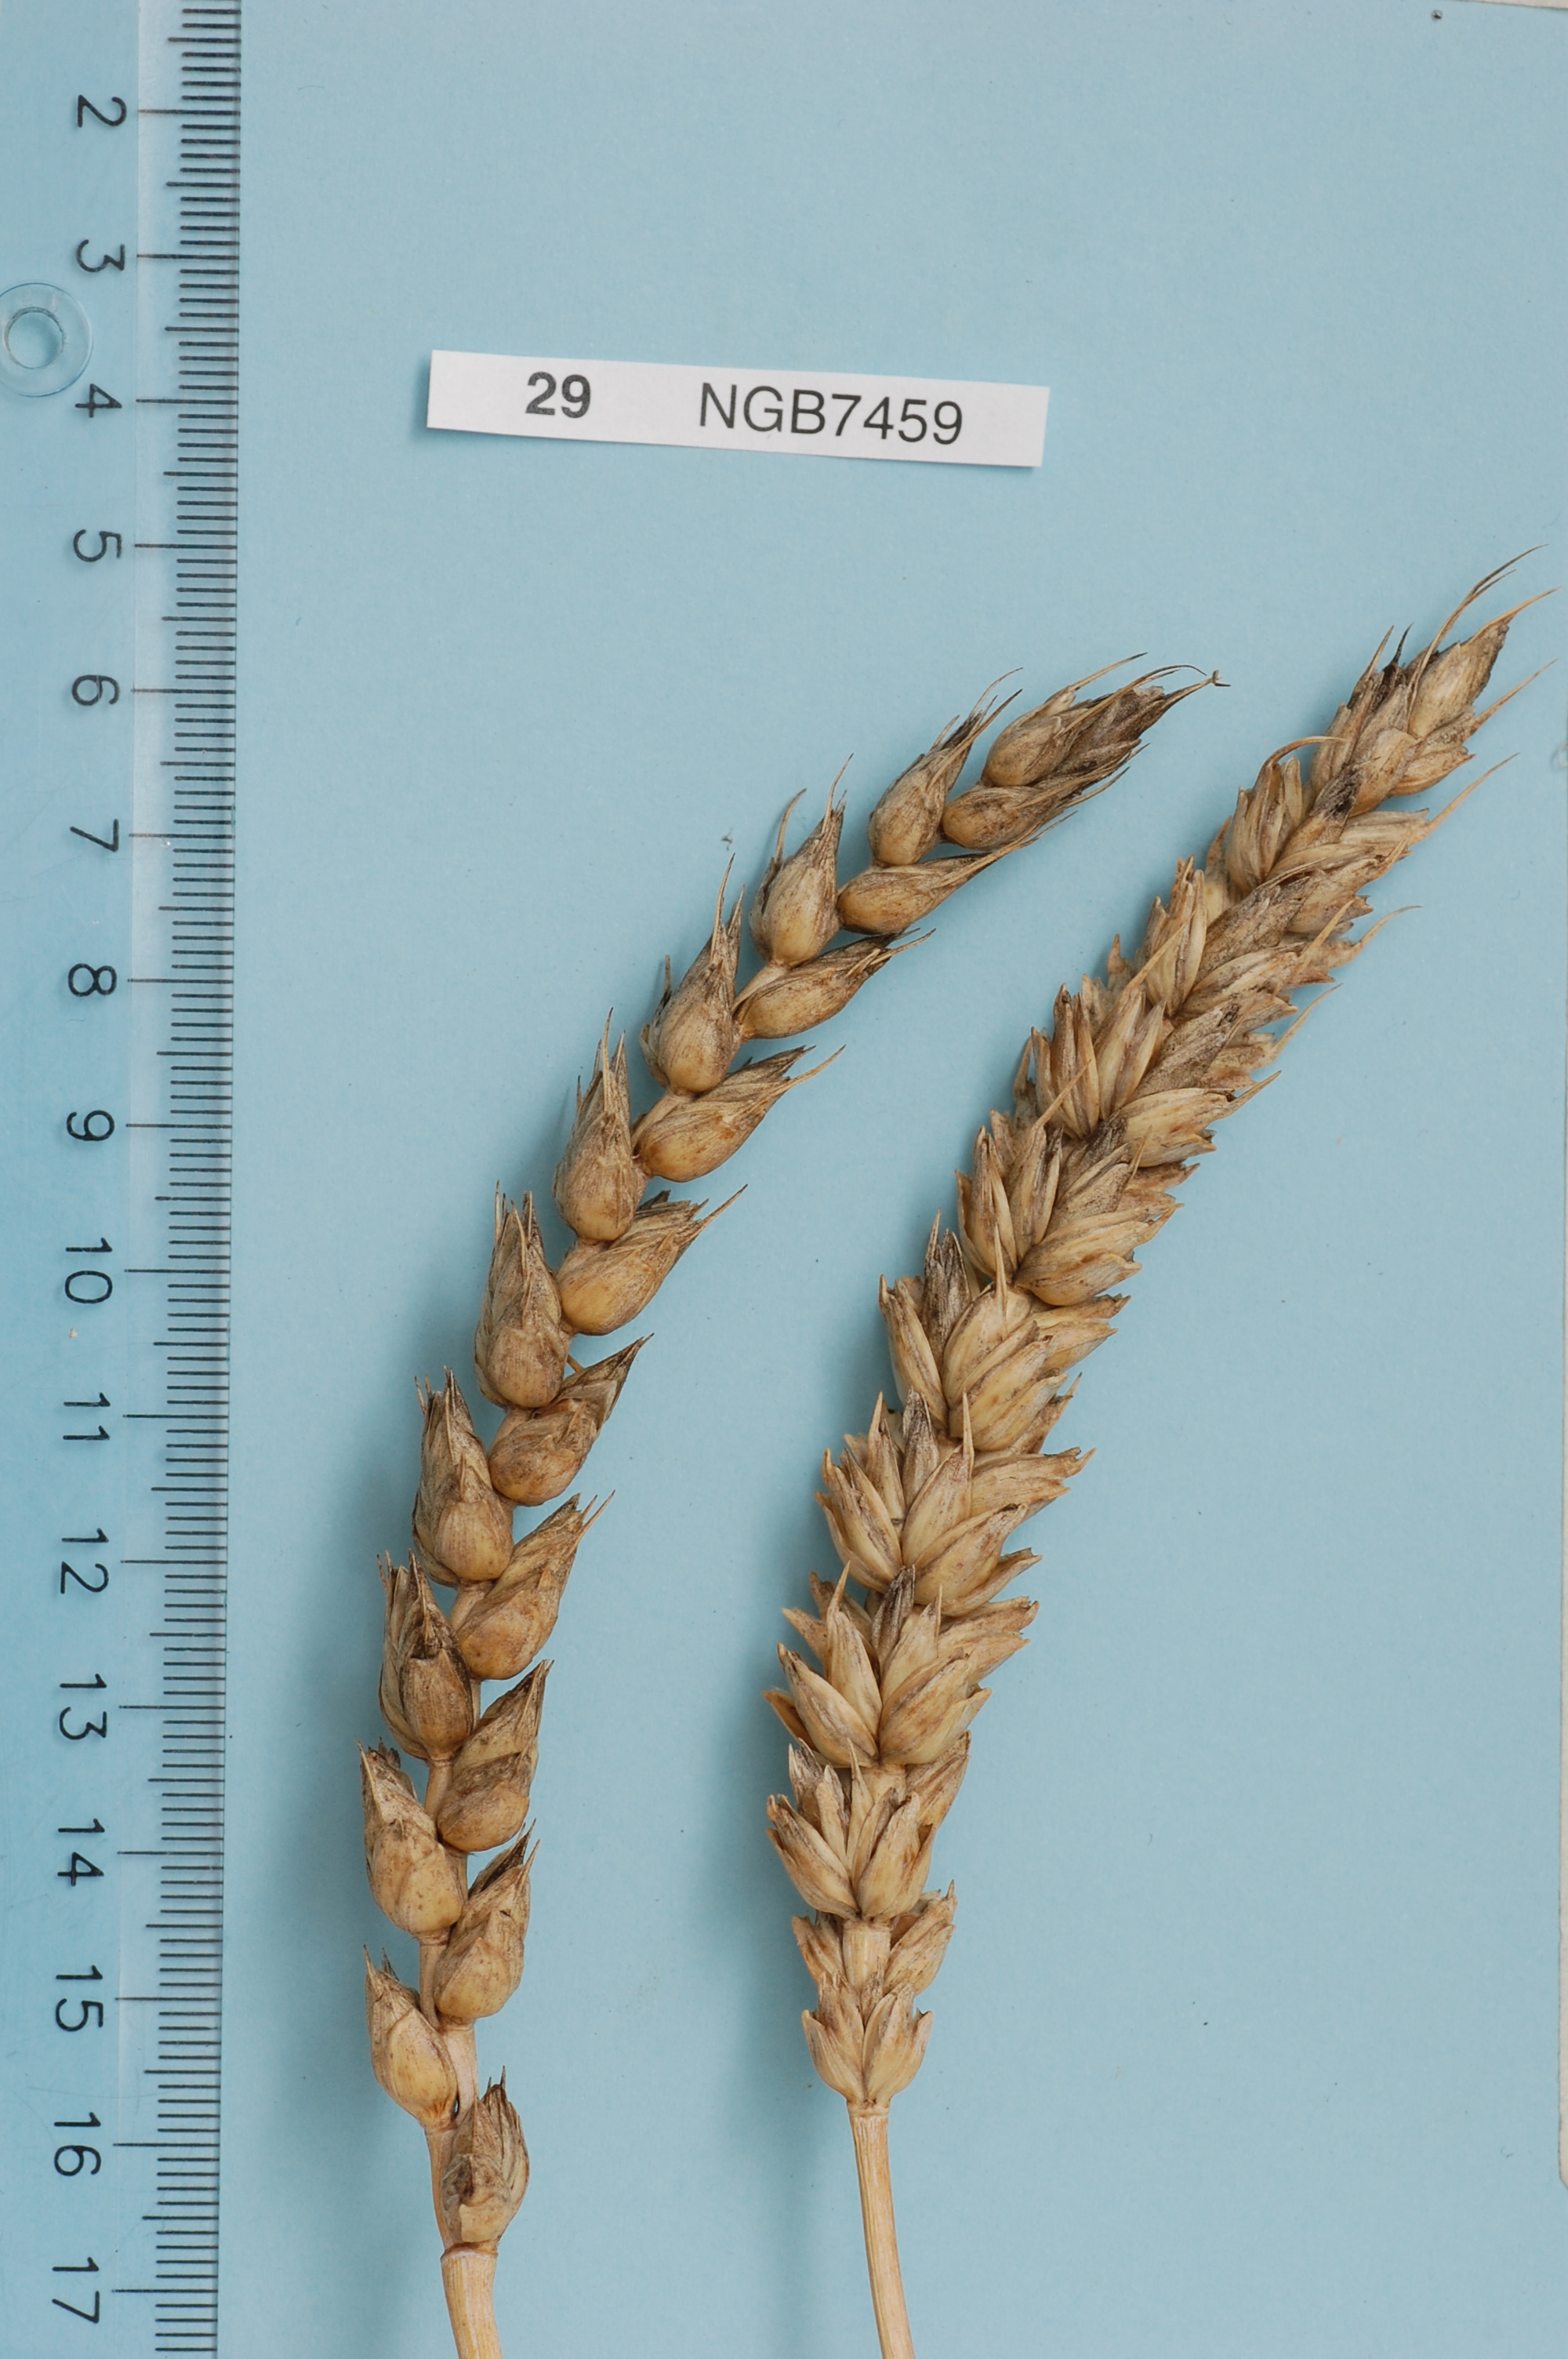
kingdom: Plantae
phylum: Tracheophyta
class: Liliopsida
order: Poales
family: Poaceae
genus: Triticum
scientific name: Triticum aestivum
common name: Common wheat
